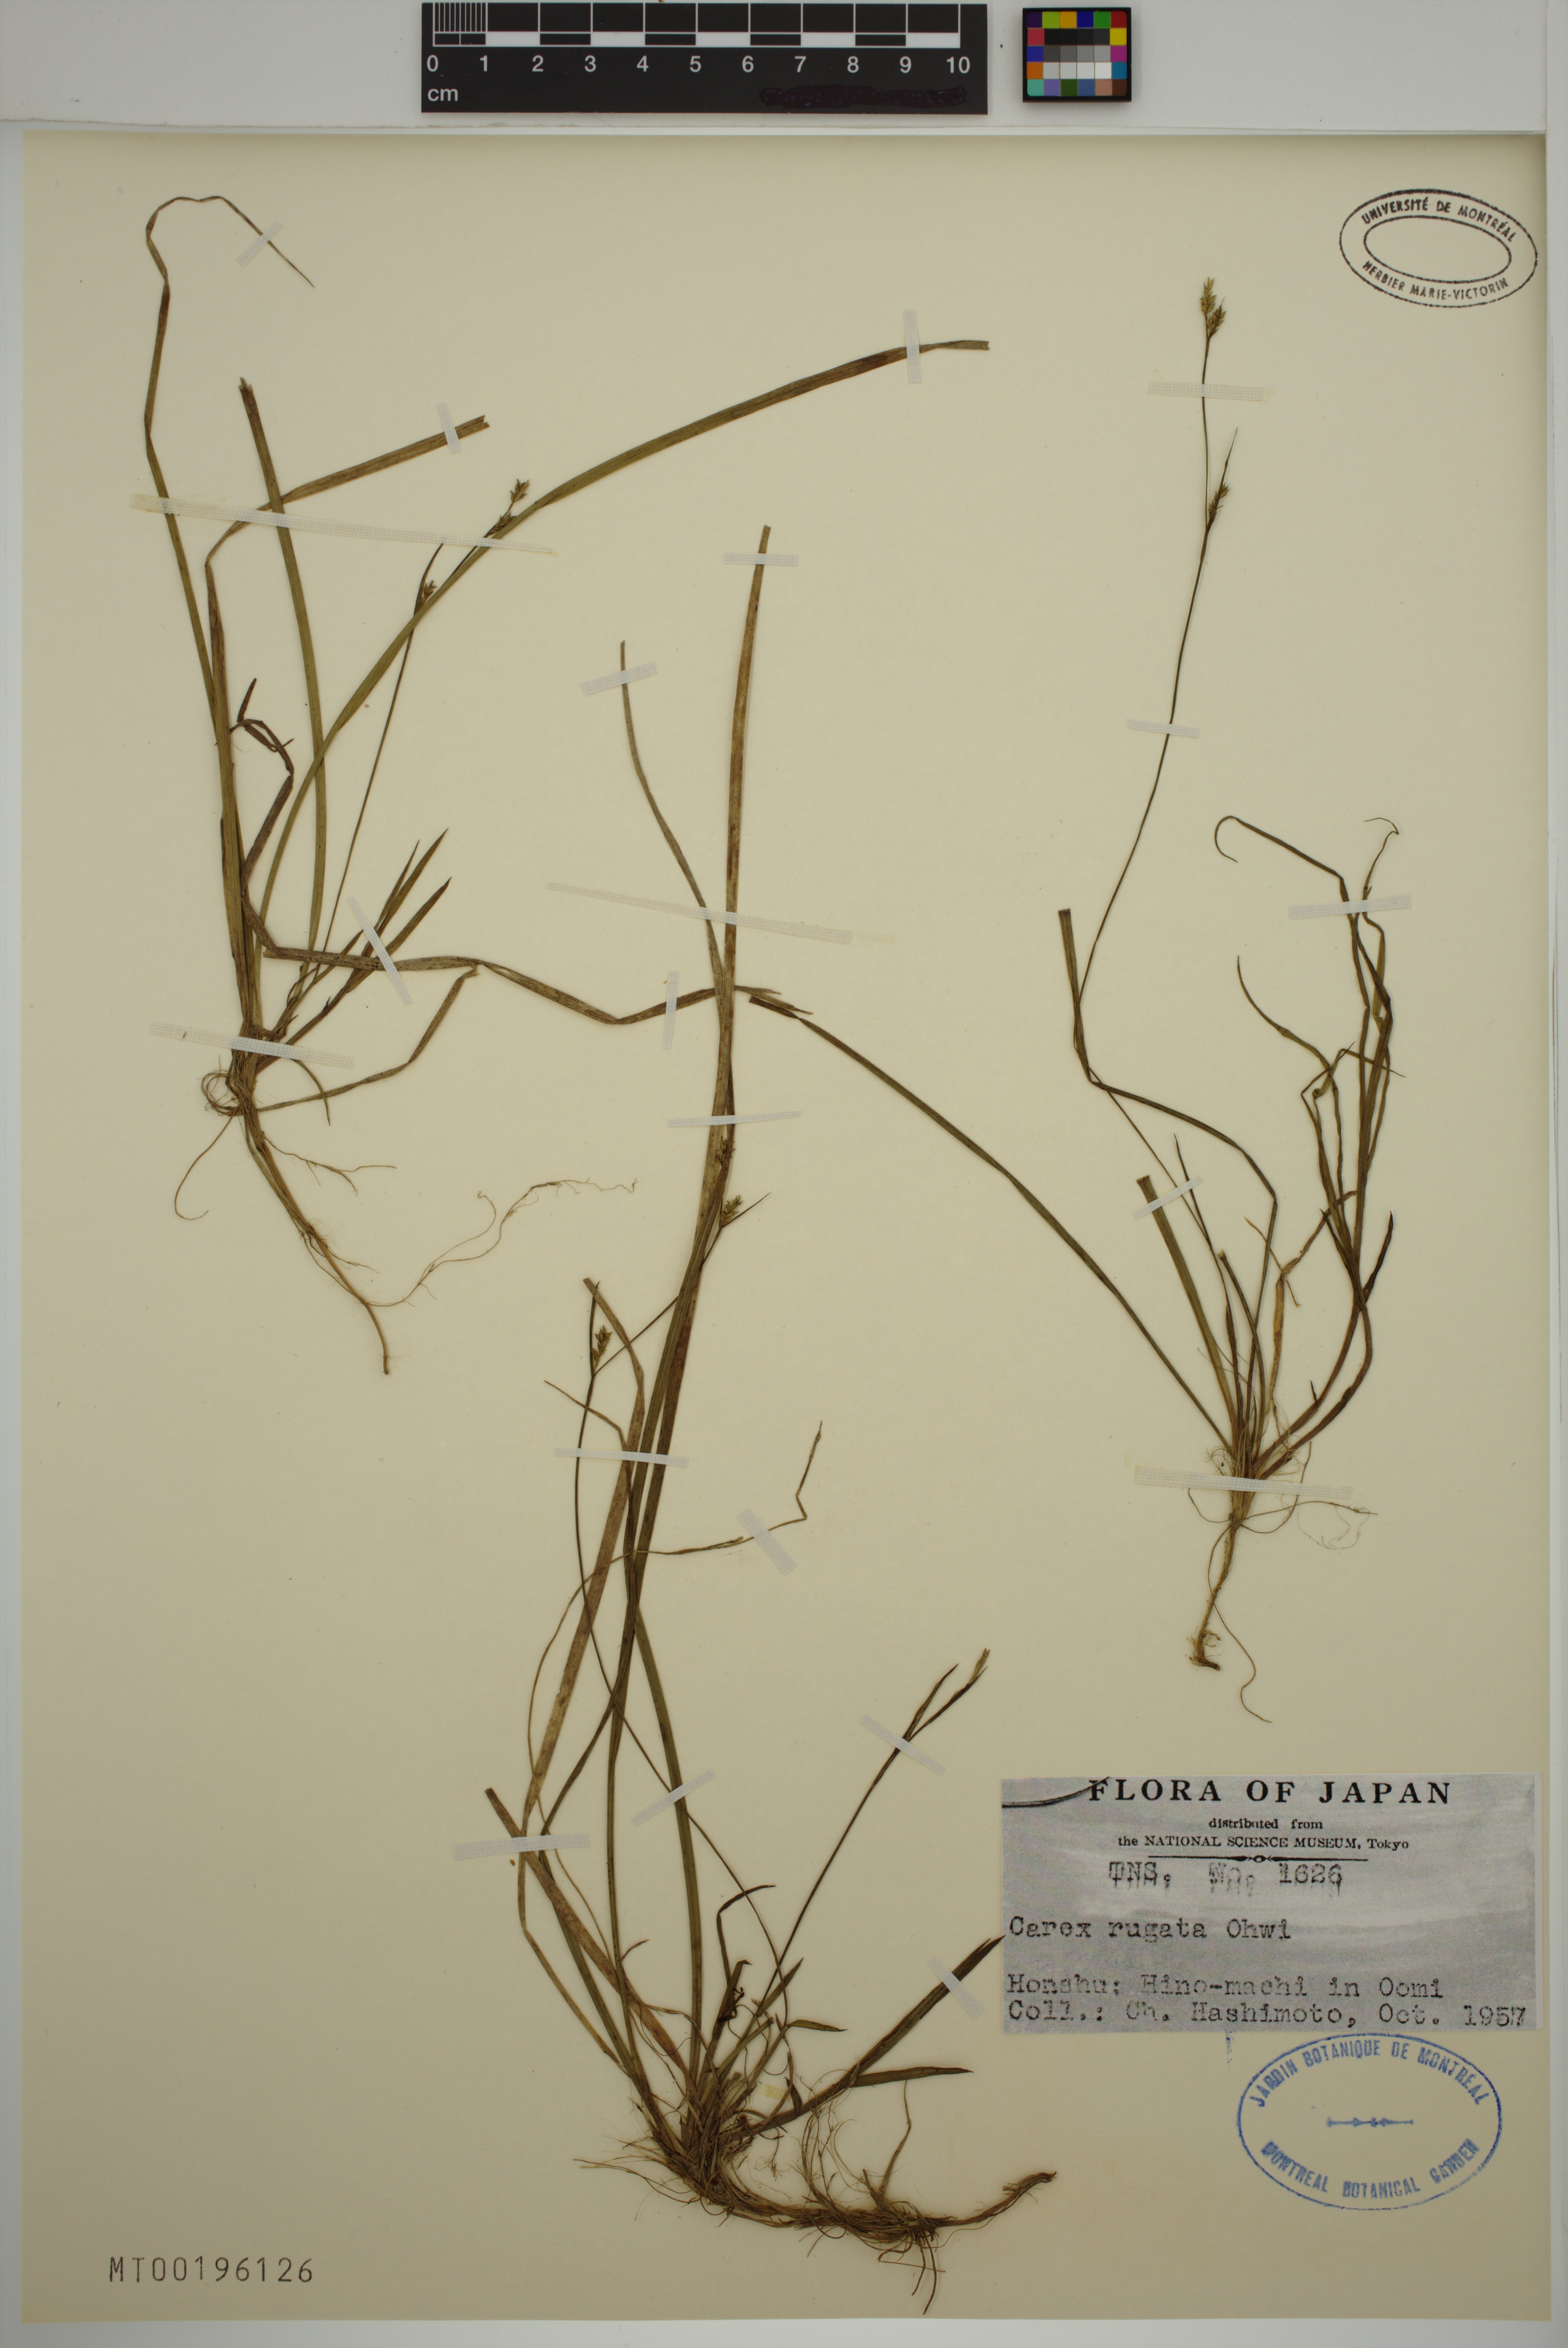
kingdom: Plantae
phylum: Tracheophyta
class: Liliopsida
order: Poales
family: Cyperaceae
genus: Carex
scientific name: Carex rugata
